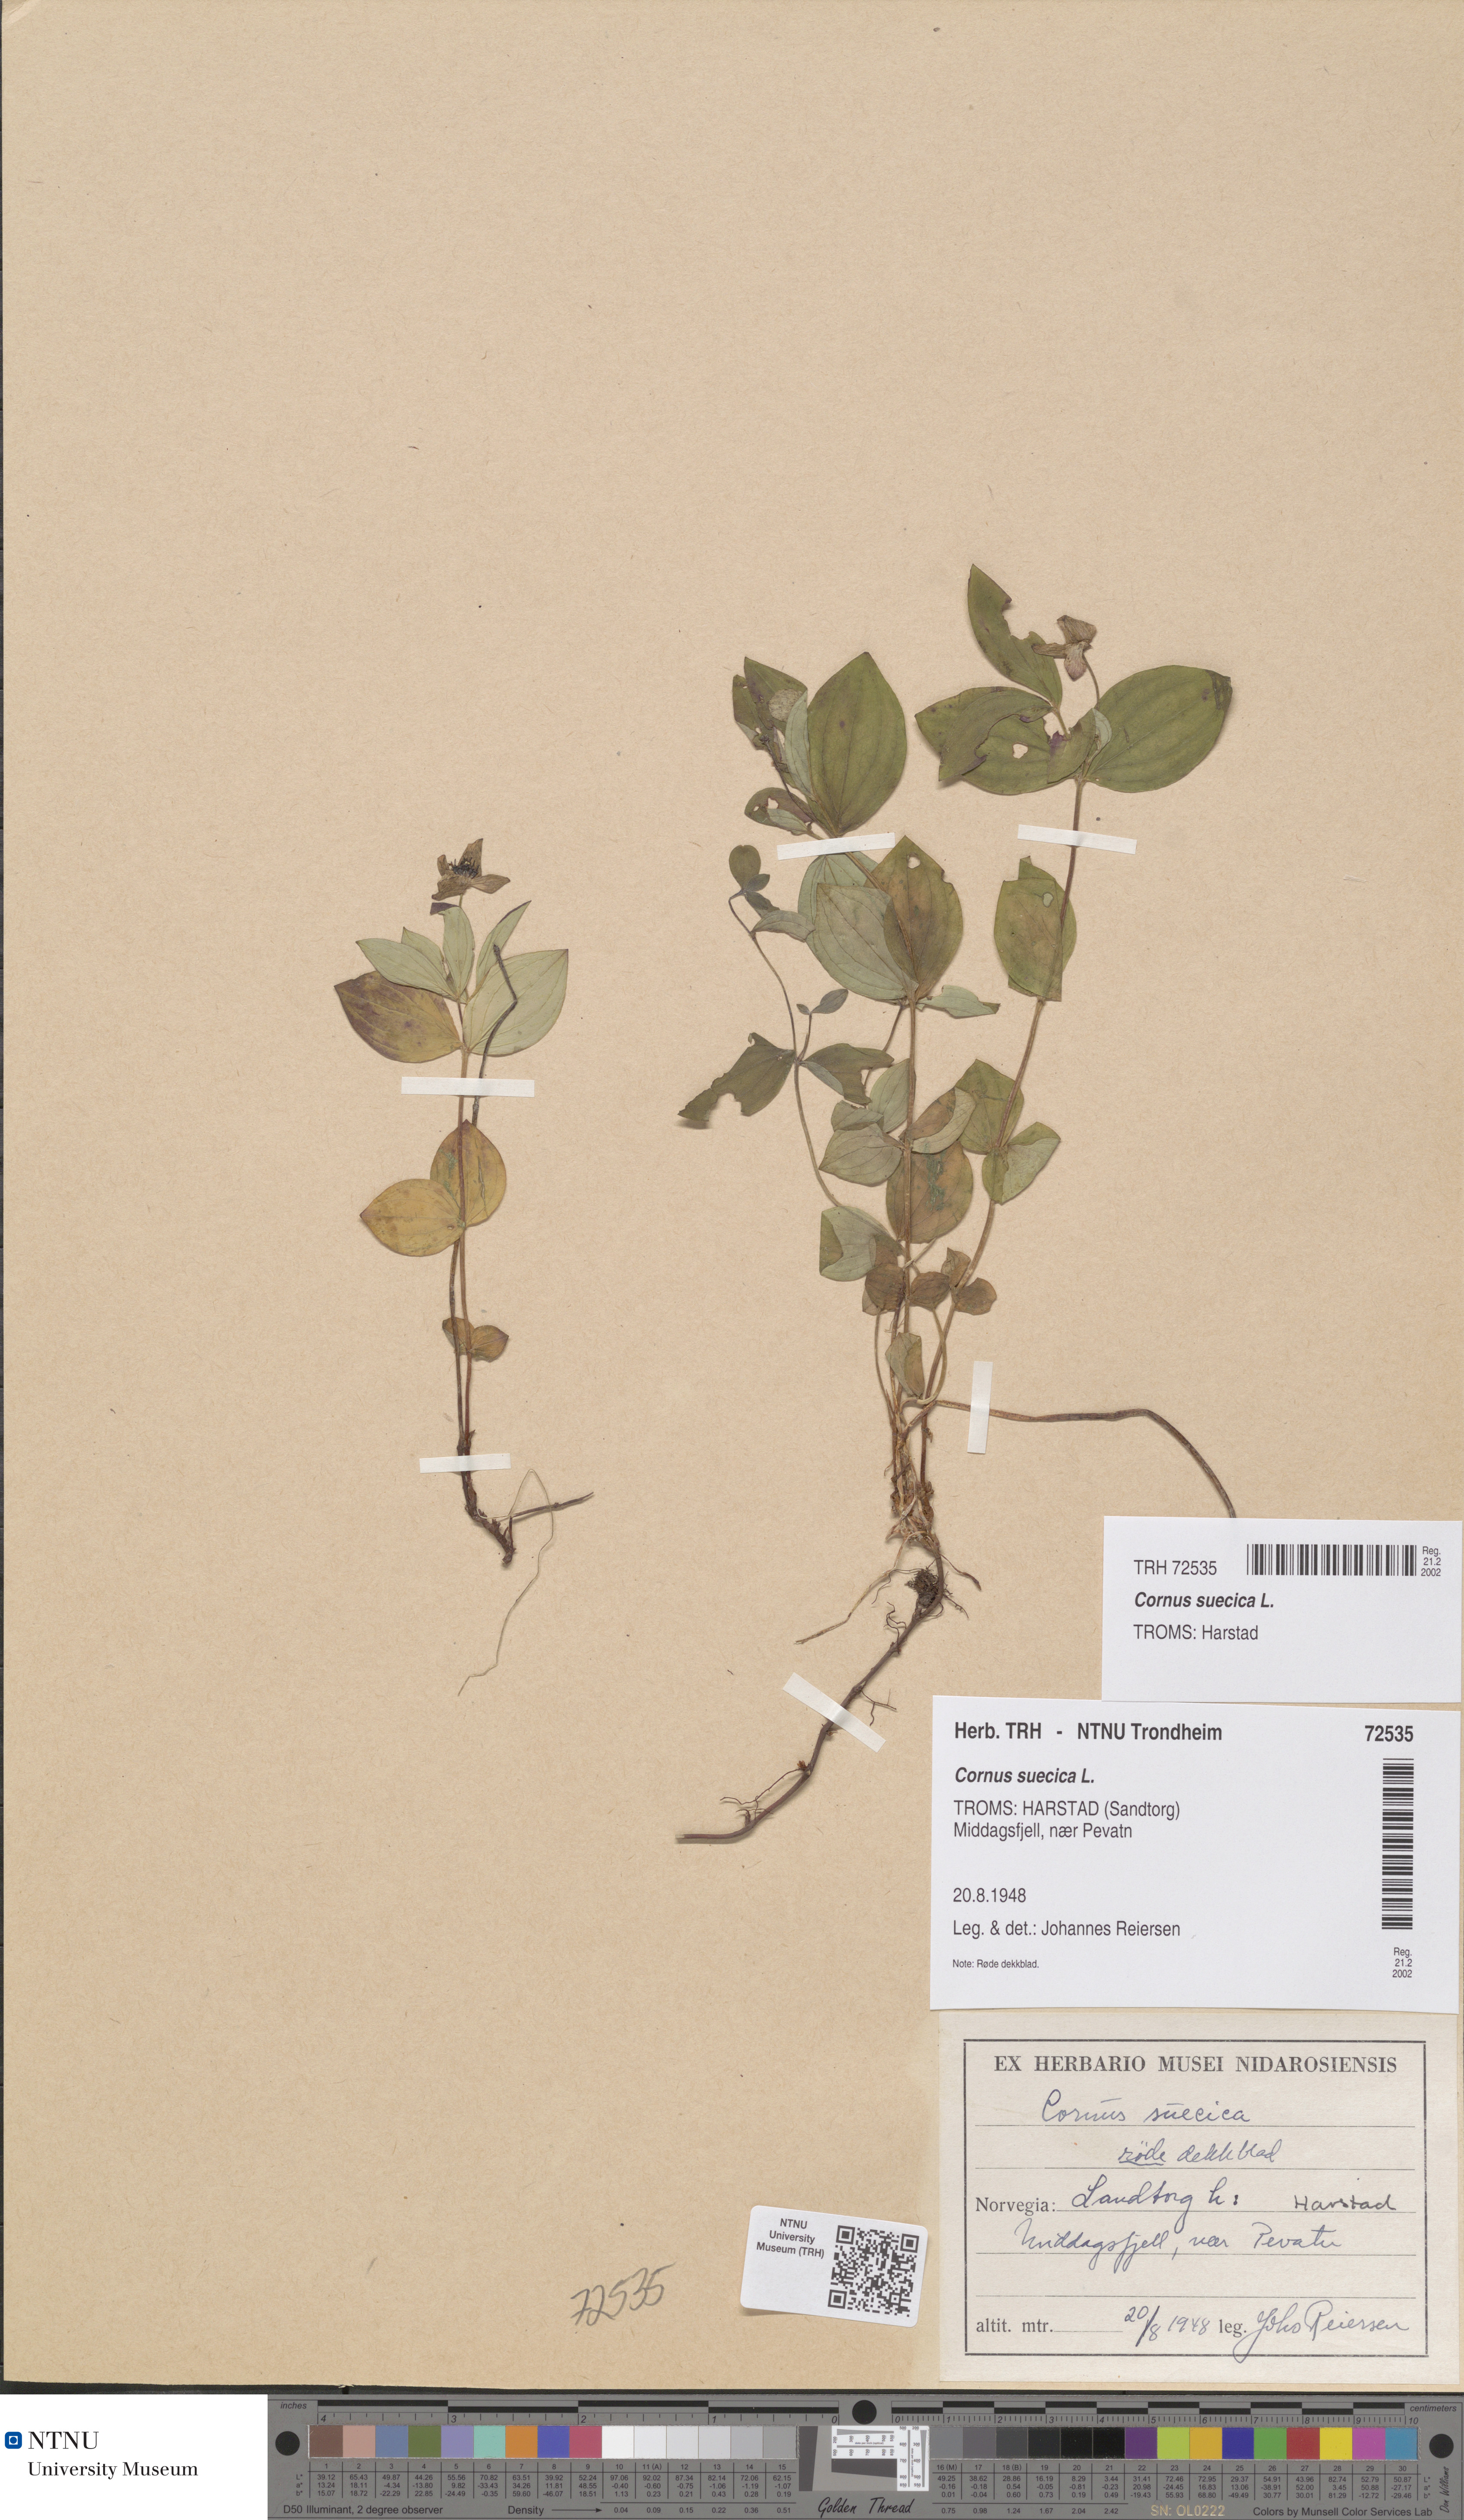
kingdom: Plantae
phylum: Tracheophyta
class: Magnoliopsida
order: Cornales
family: Cornaceae
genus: Cornus
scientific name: Cornus suecica
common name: Dwarf cornel
